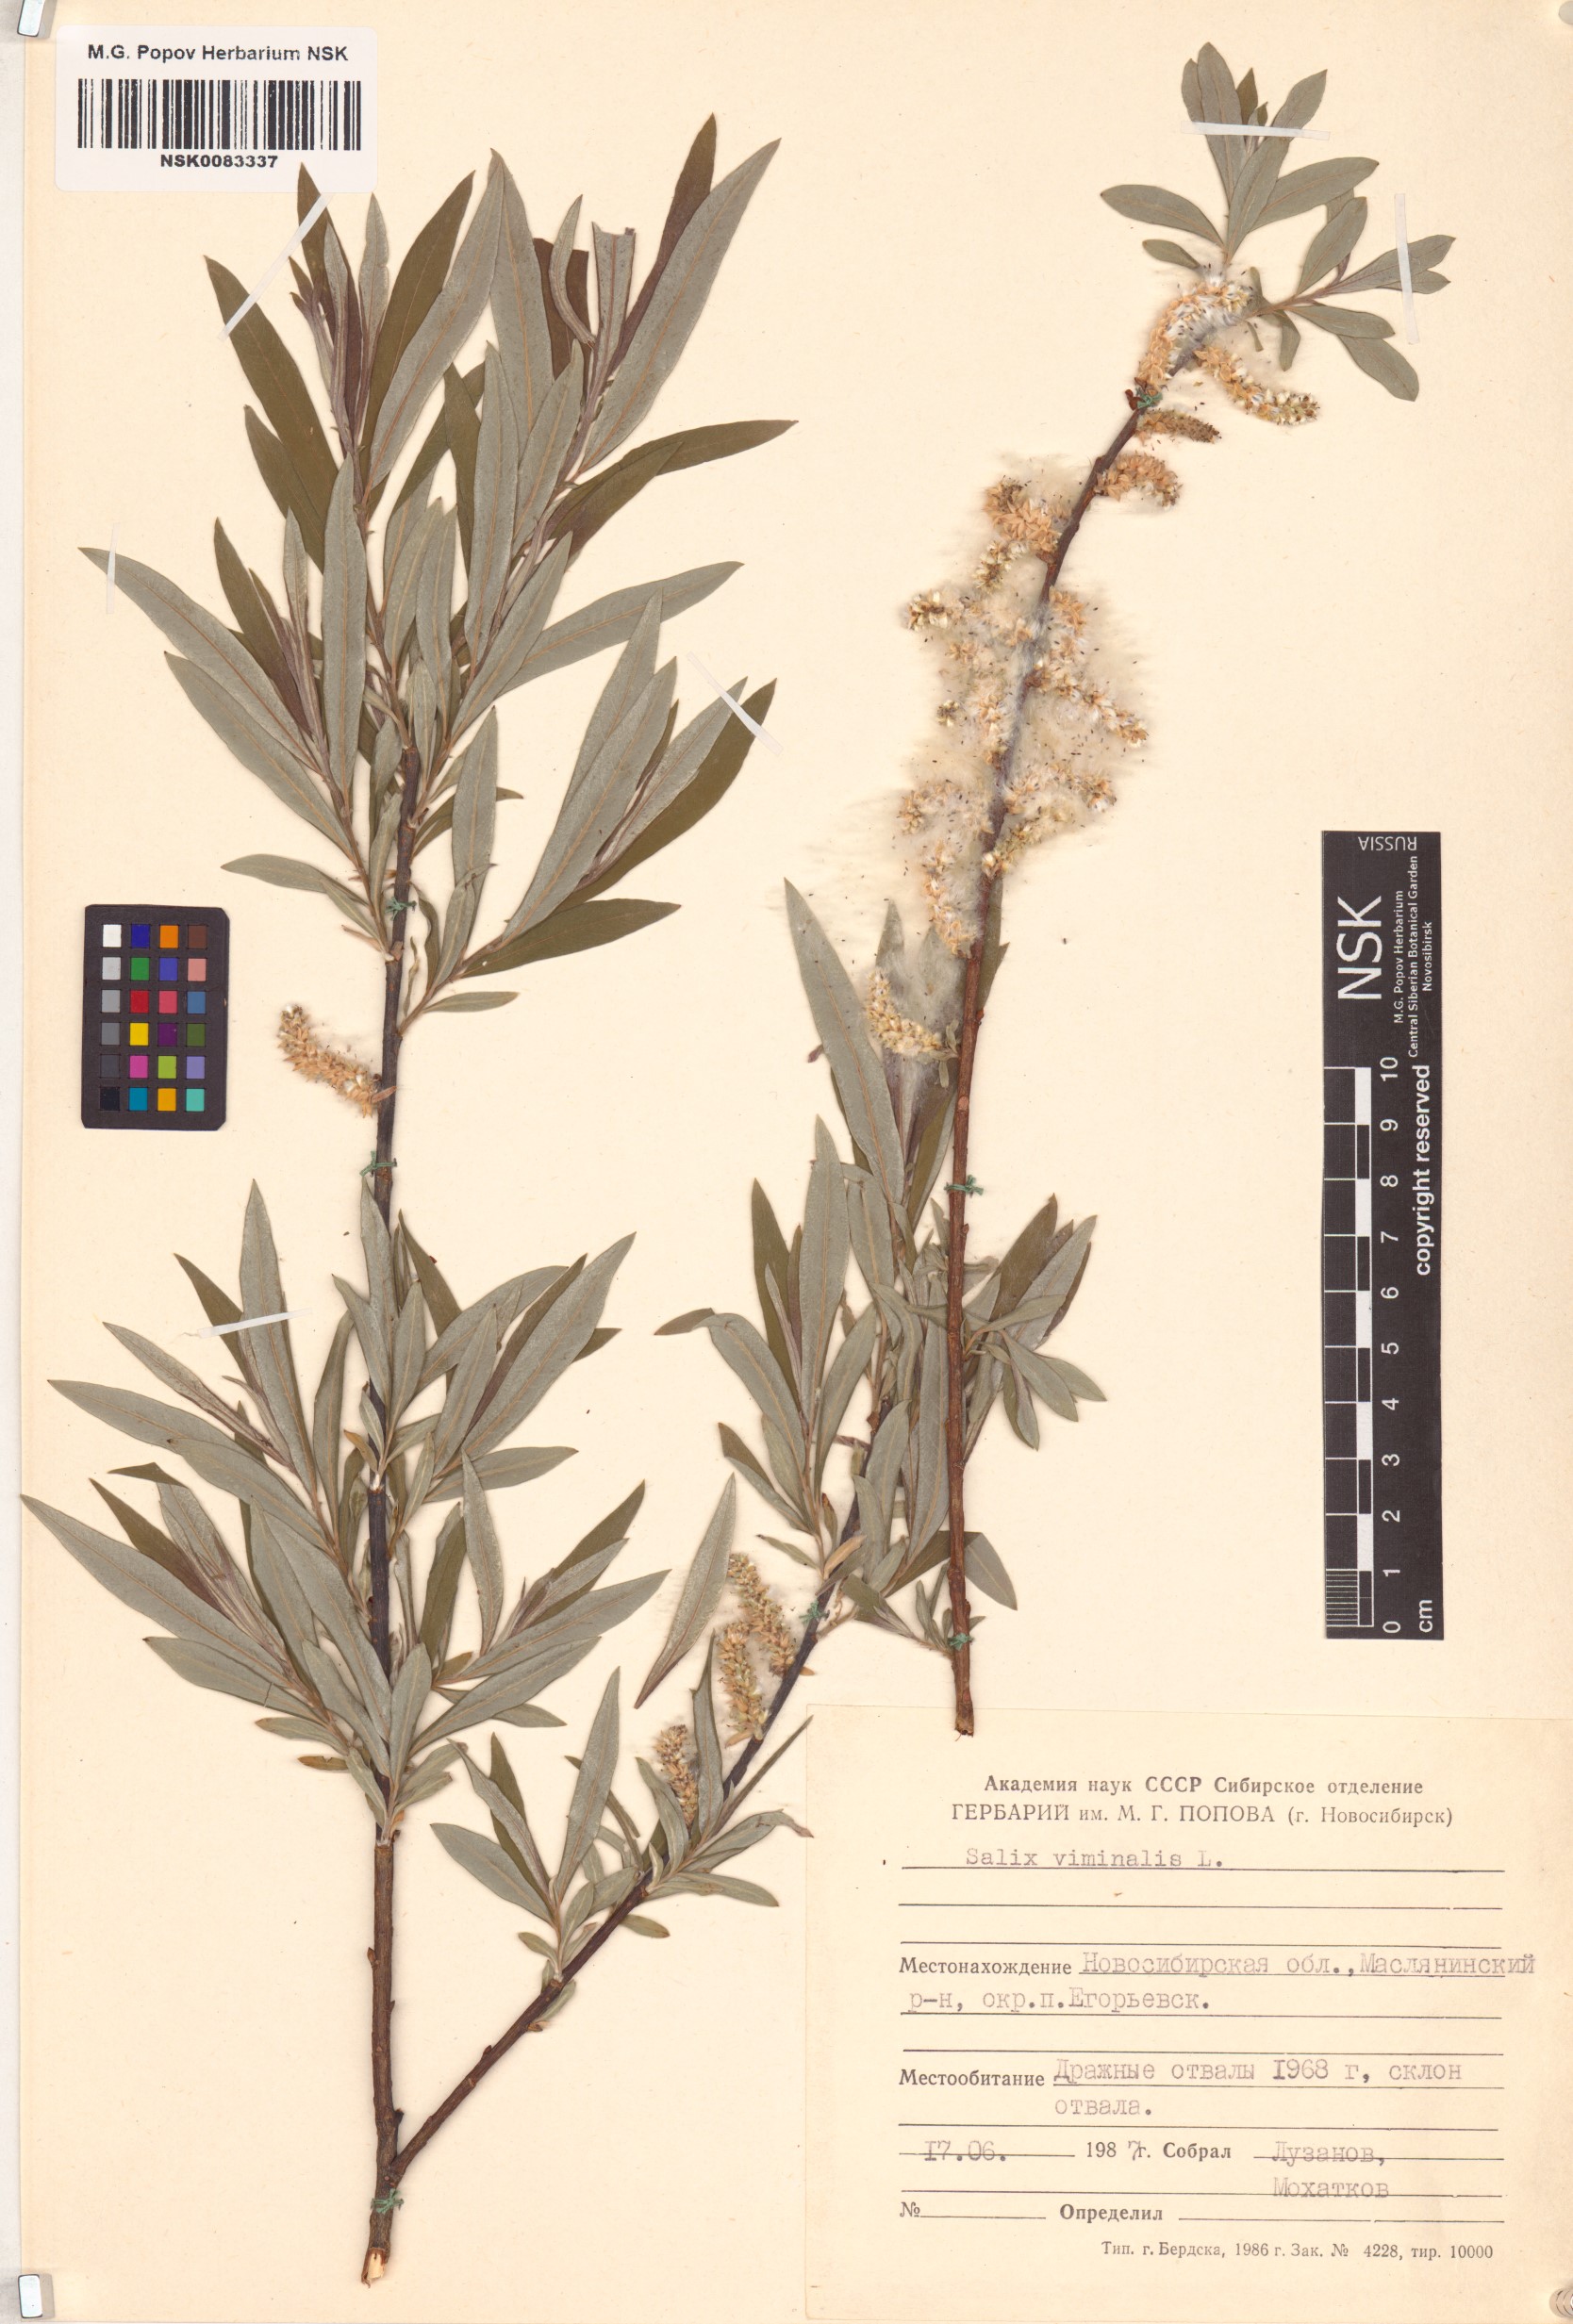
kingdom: Plantae
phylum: Tracheophyta
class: Magnoliopsida
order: Malpighiales
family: Salicaceae
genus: Salix
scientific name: Salix viminalis
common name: Osier
